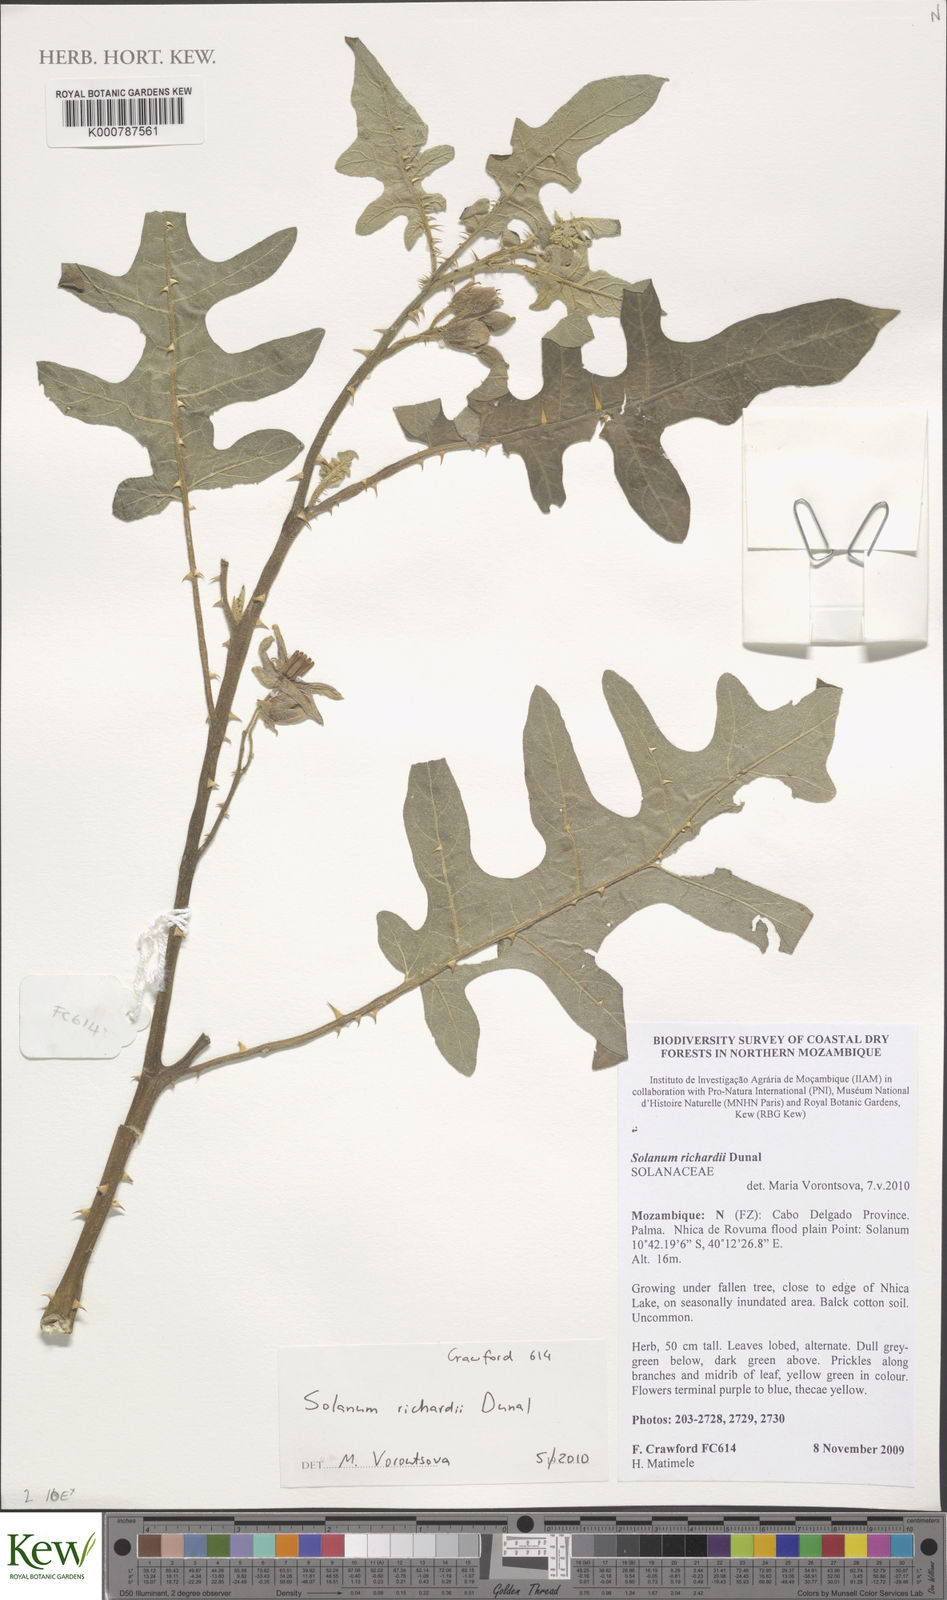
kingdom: Plantae
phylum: Tracheophyta
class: Magnoliopsida
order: Solanales
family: Solanaceae
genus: Solanum
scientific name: Solanum richardii
